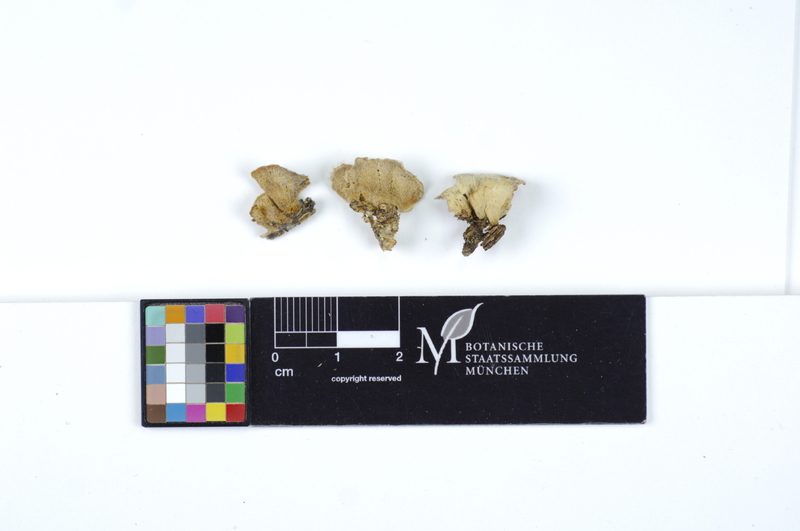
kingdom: Fungi
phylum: Basidiomycota
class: Agaricomycetes
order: Polyporales
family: Steccherinaceae
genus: Antrodiella
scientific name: Antrodiella semisupina
